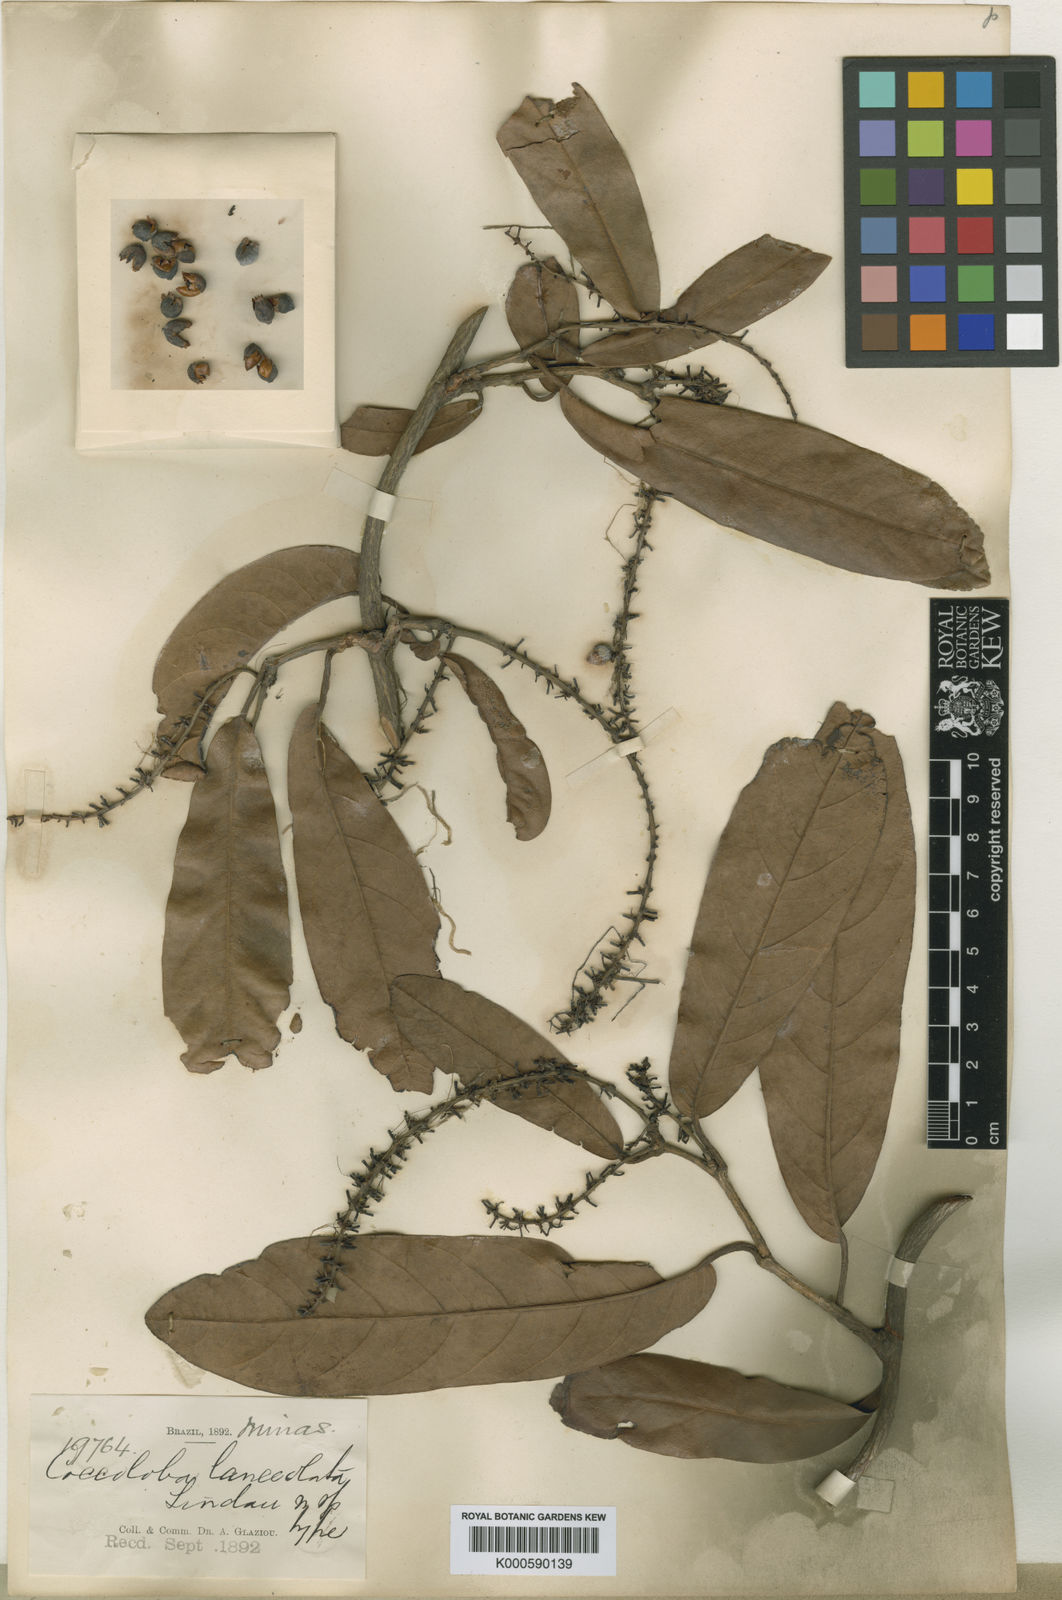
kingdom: Plantae
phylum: Tracheophyta
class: Magnoliopsida
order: Caryophyllales
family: Polygonaceae
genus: Coccoloba
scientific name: Coccoloba lanceolata
